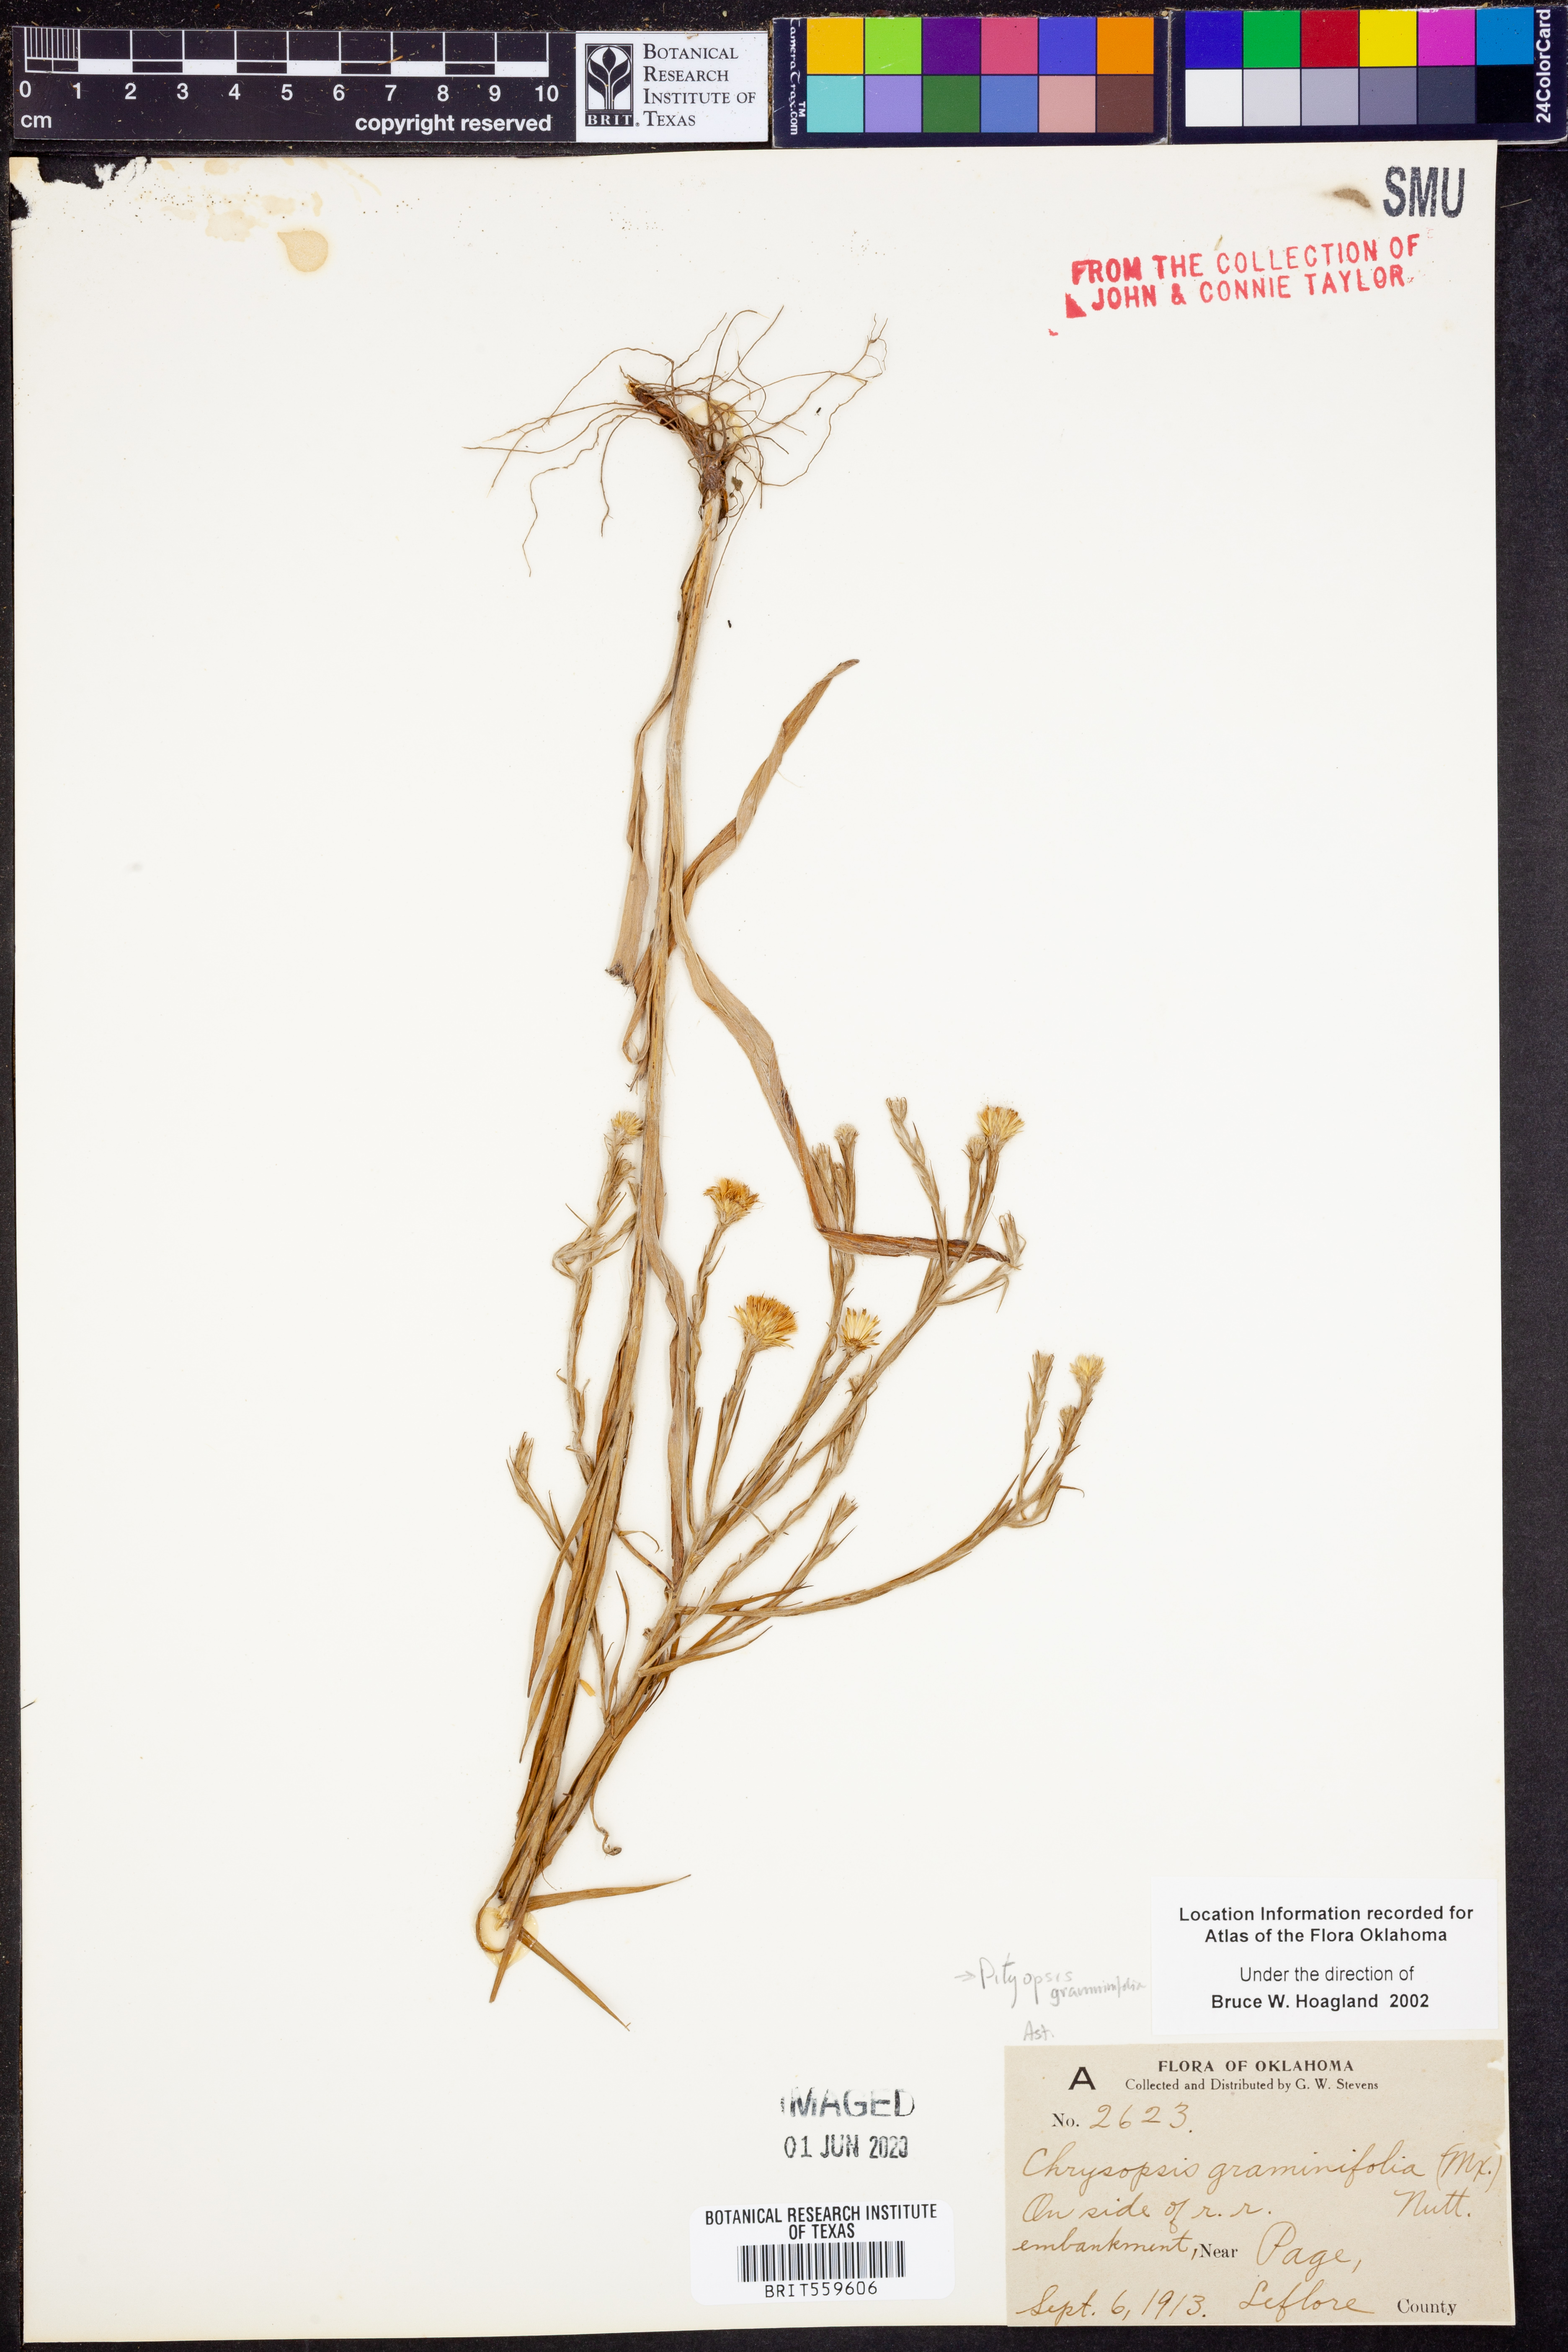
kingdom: Plantae
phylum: Tracheophyta
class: Magnoliopsida
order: Asterales
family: Asteraceae
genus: Pityopsis
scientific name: Pityopsis graminifolia
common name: Grass-leaf golden-aster
